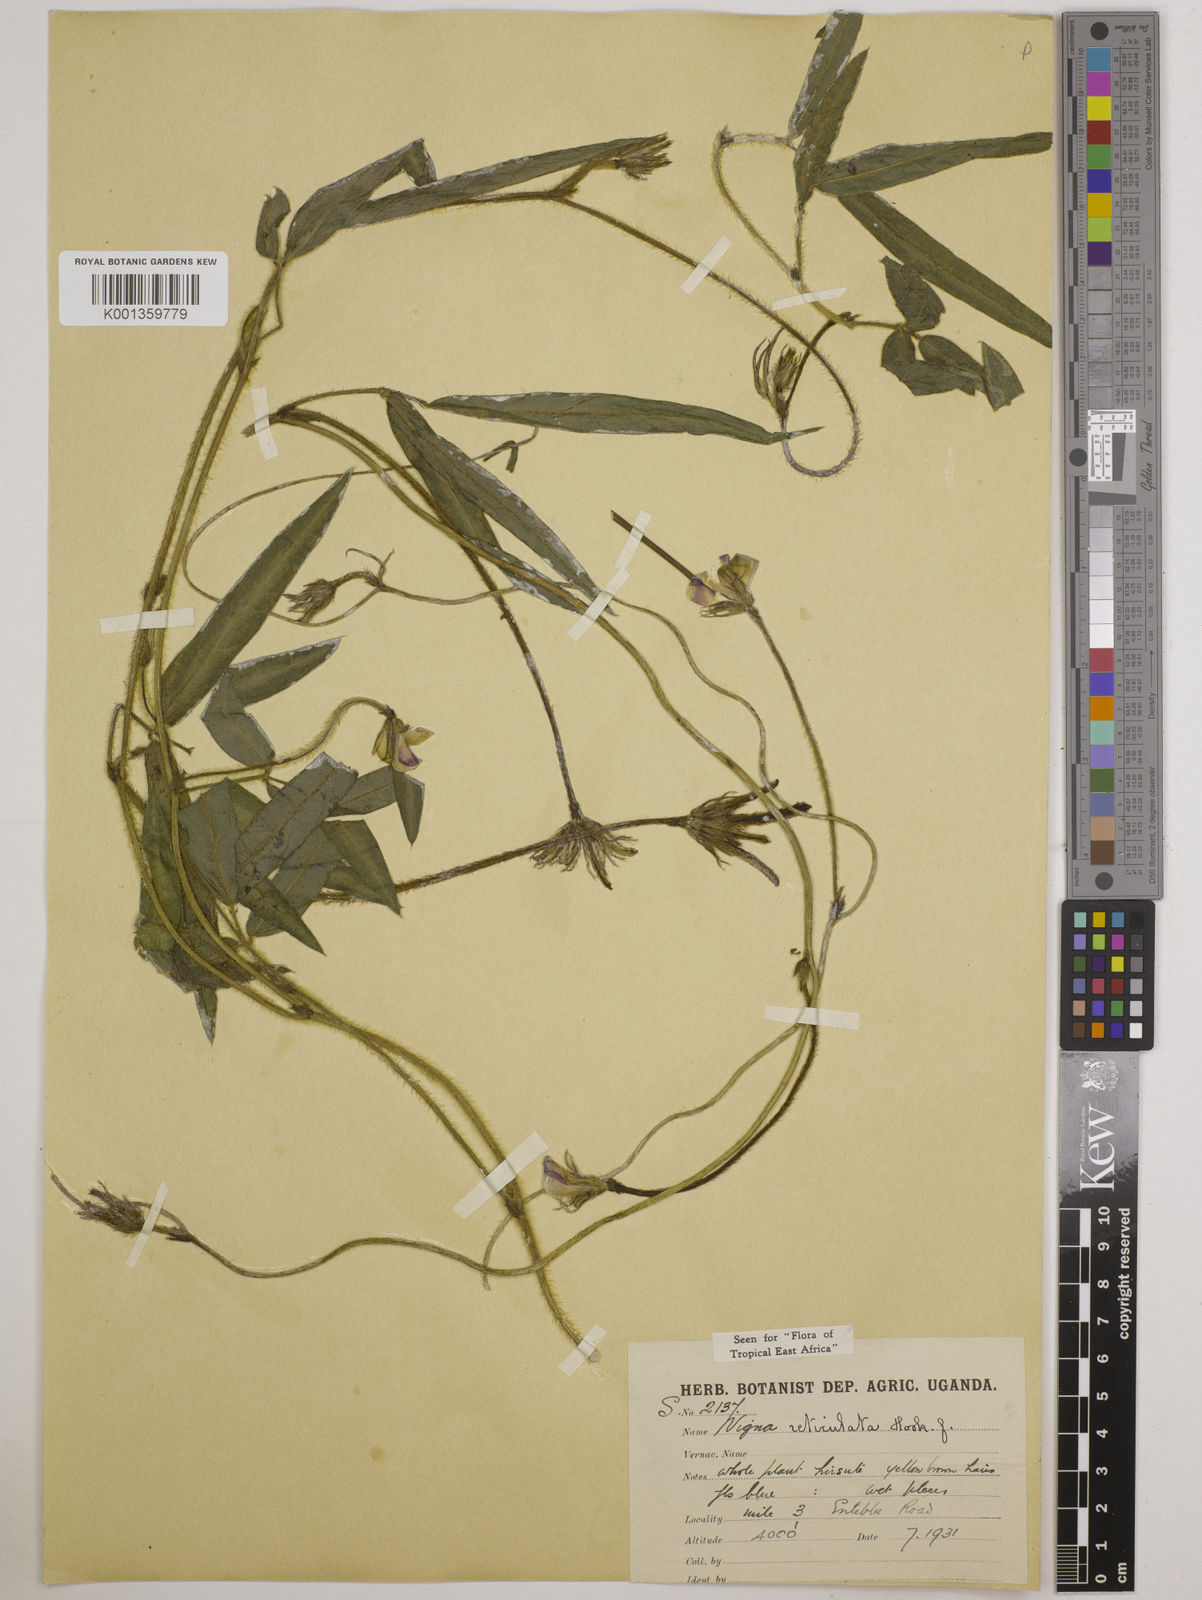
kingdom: Plantae
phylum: Tracheophyta
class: Magnoliopsida
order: Fabales
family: Fabaceae
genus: Vigna
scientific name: Vigna reticulata
